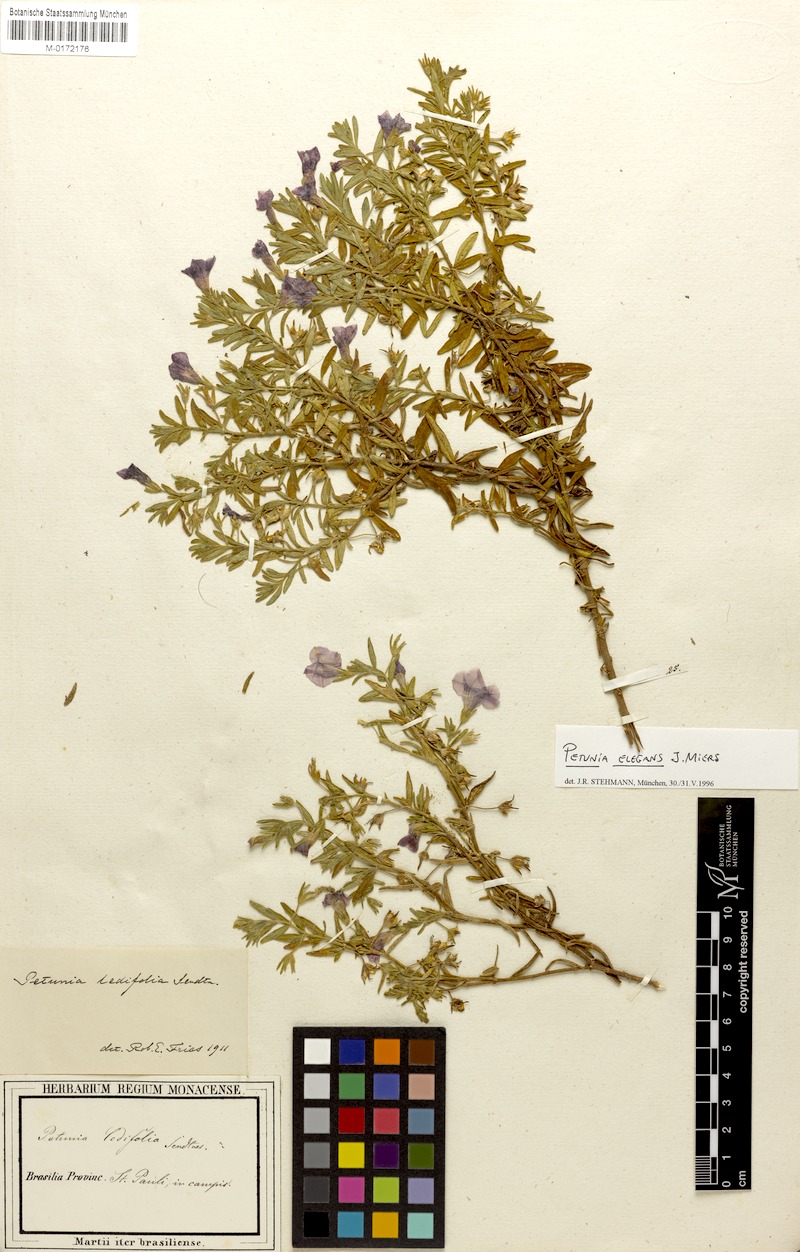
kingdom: Plantae
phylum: Tracheophyta
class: Magnoliopsida
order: Solanales
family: Solanaceae
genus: Calibrachoa
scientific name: Calibrachoa elegans
